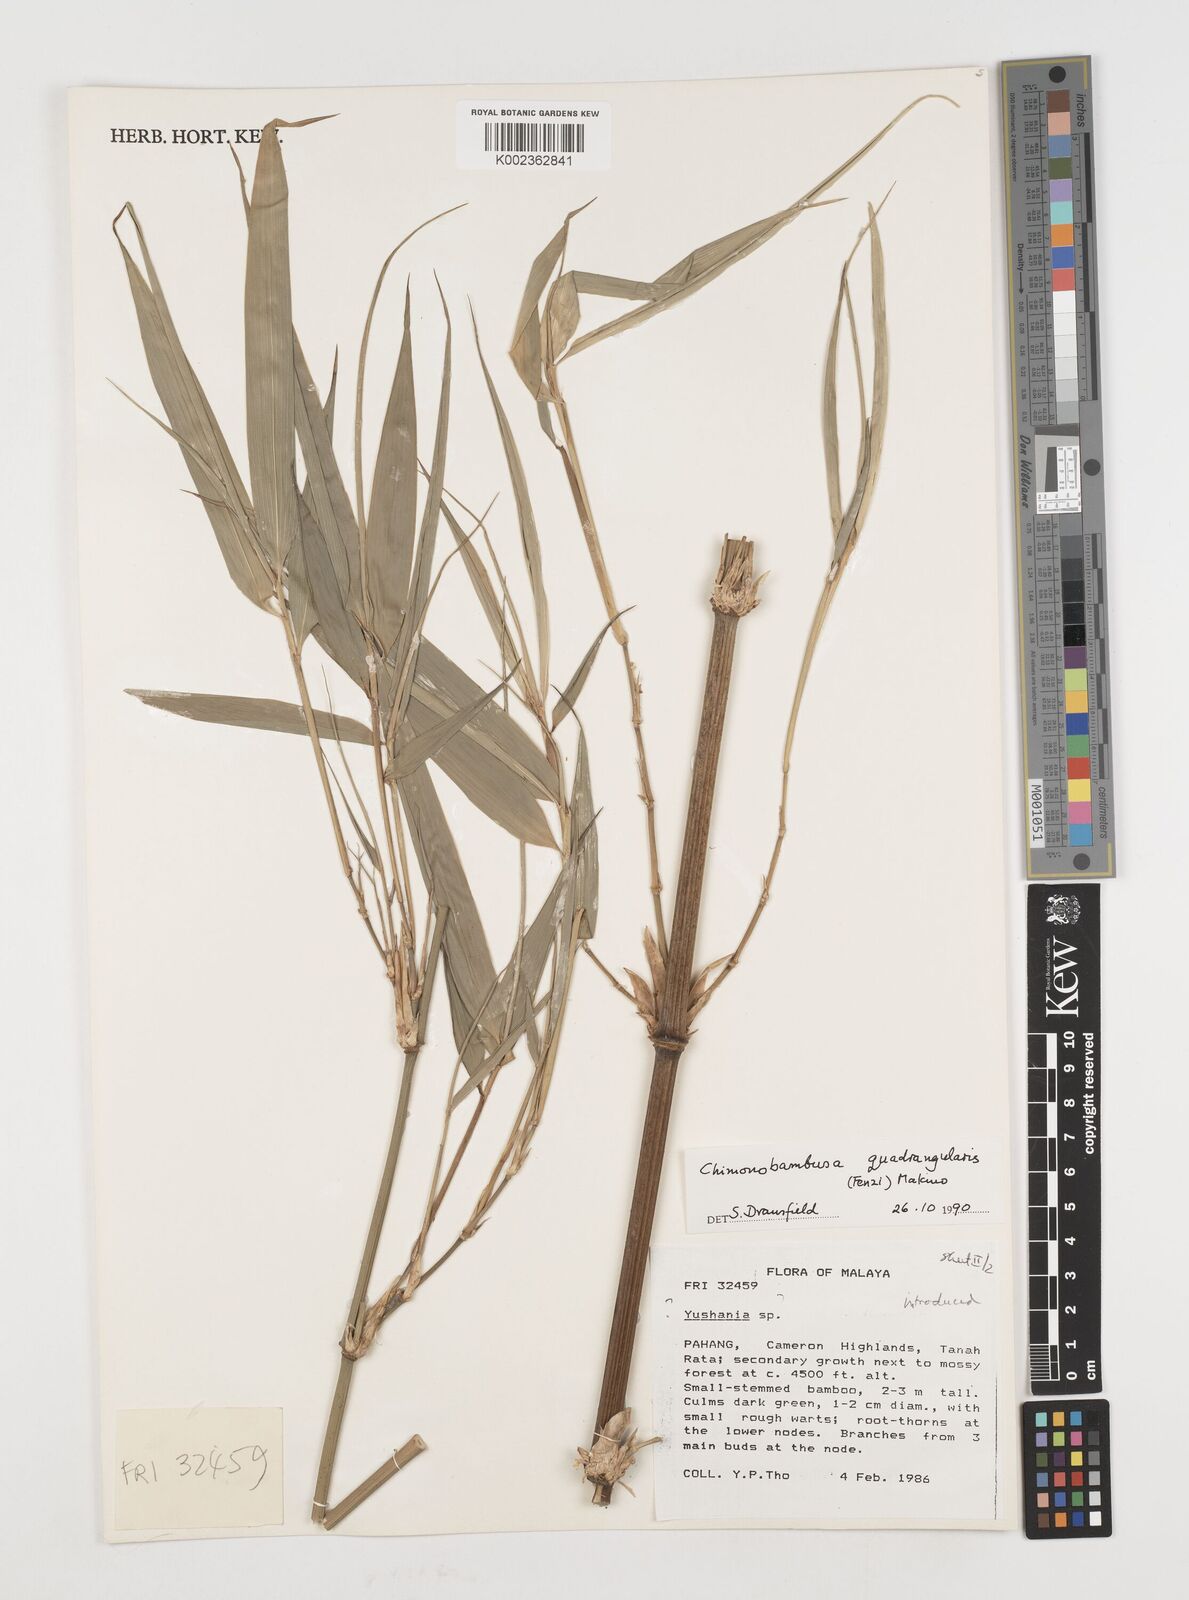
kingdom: Plantae
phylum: Tracheophyta
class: Liliopsida
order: Poales
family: Poaceae
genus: Chimonobambusa
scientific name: Chimonobambusa quadrangularis
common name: Square-stemmed bamboo
